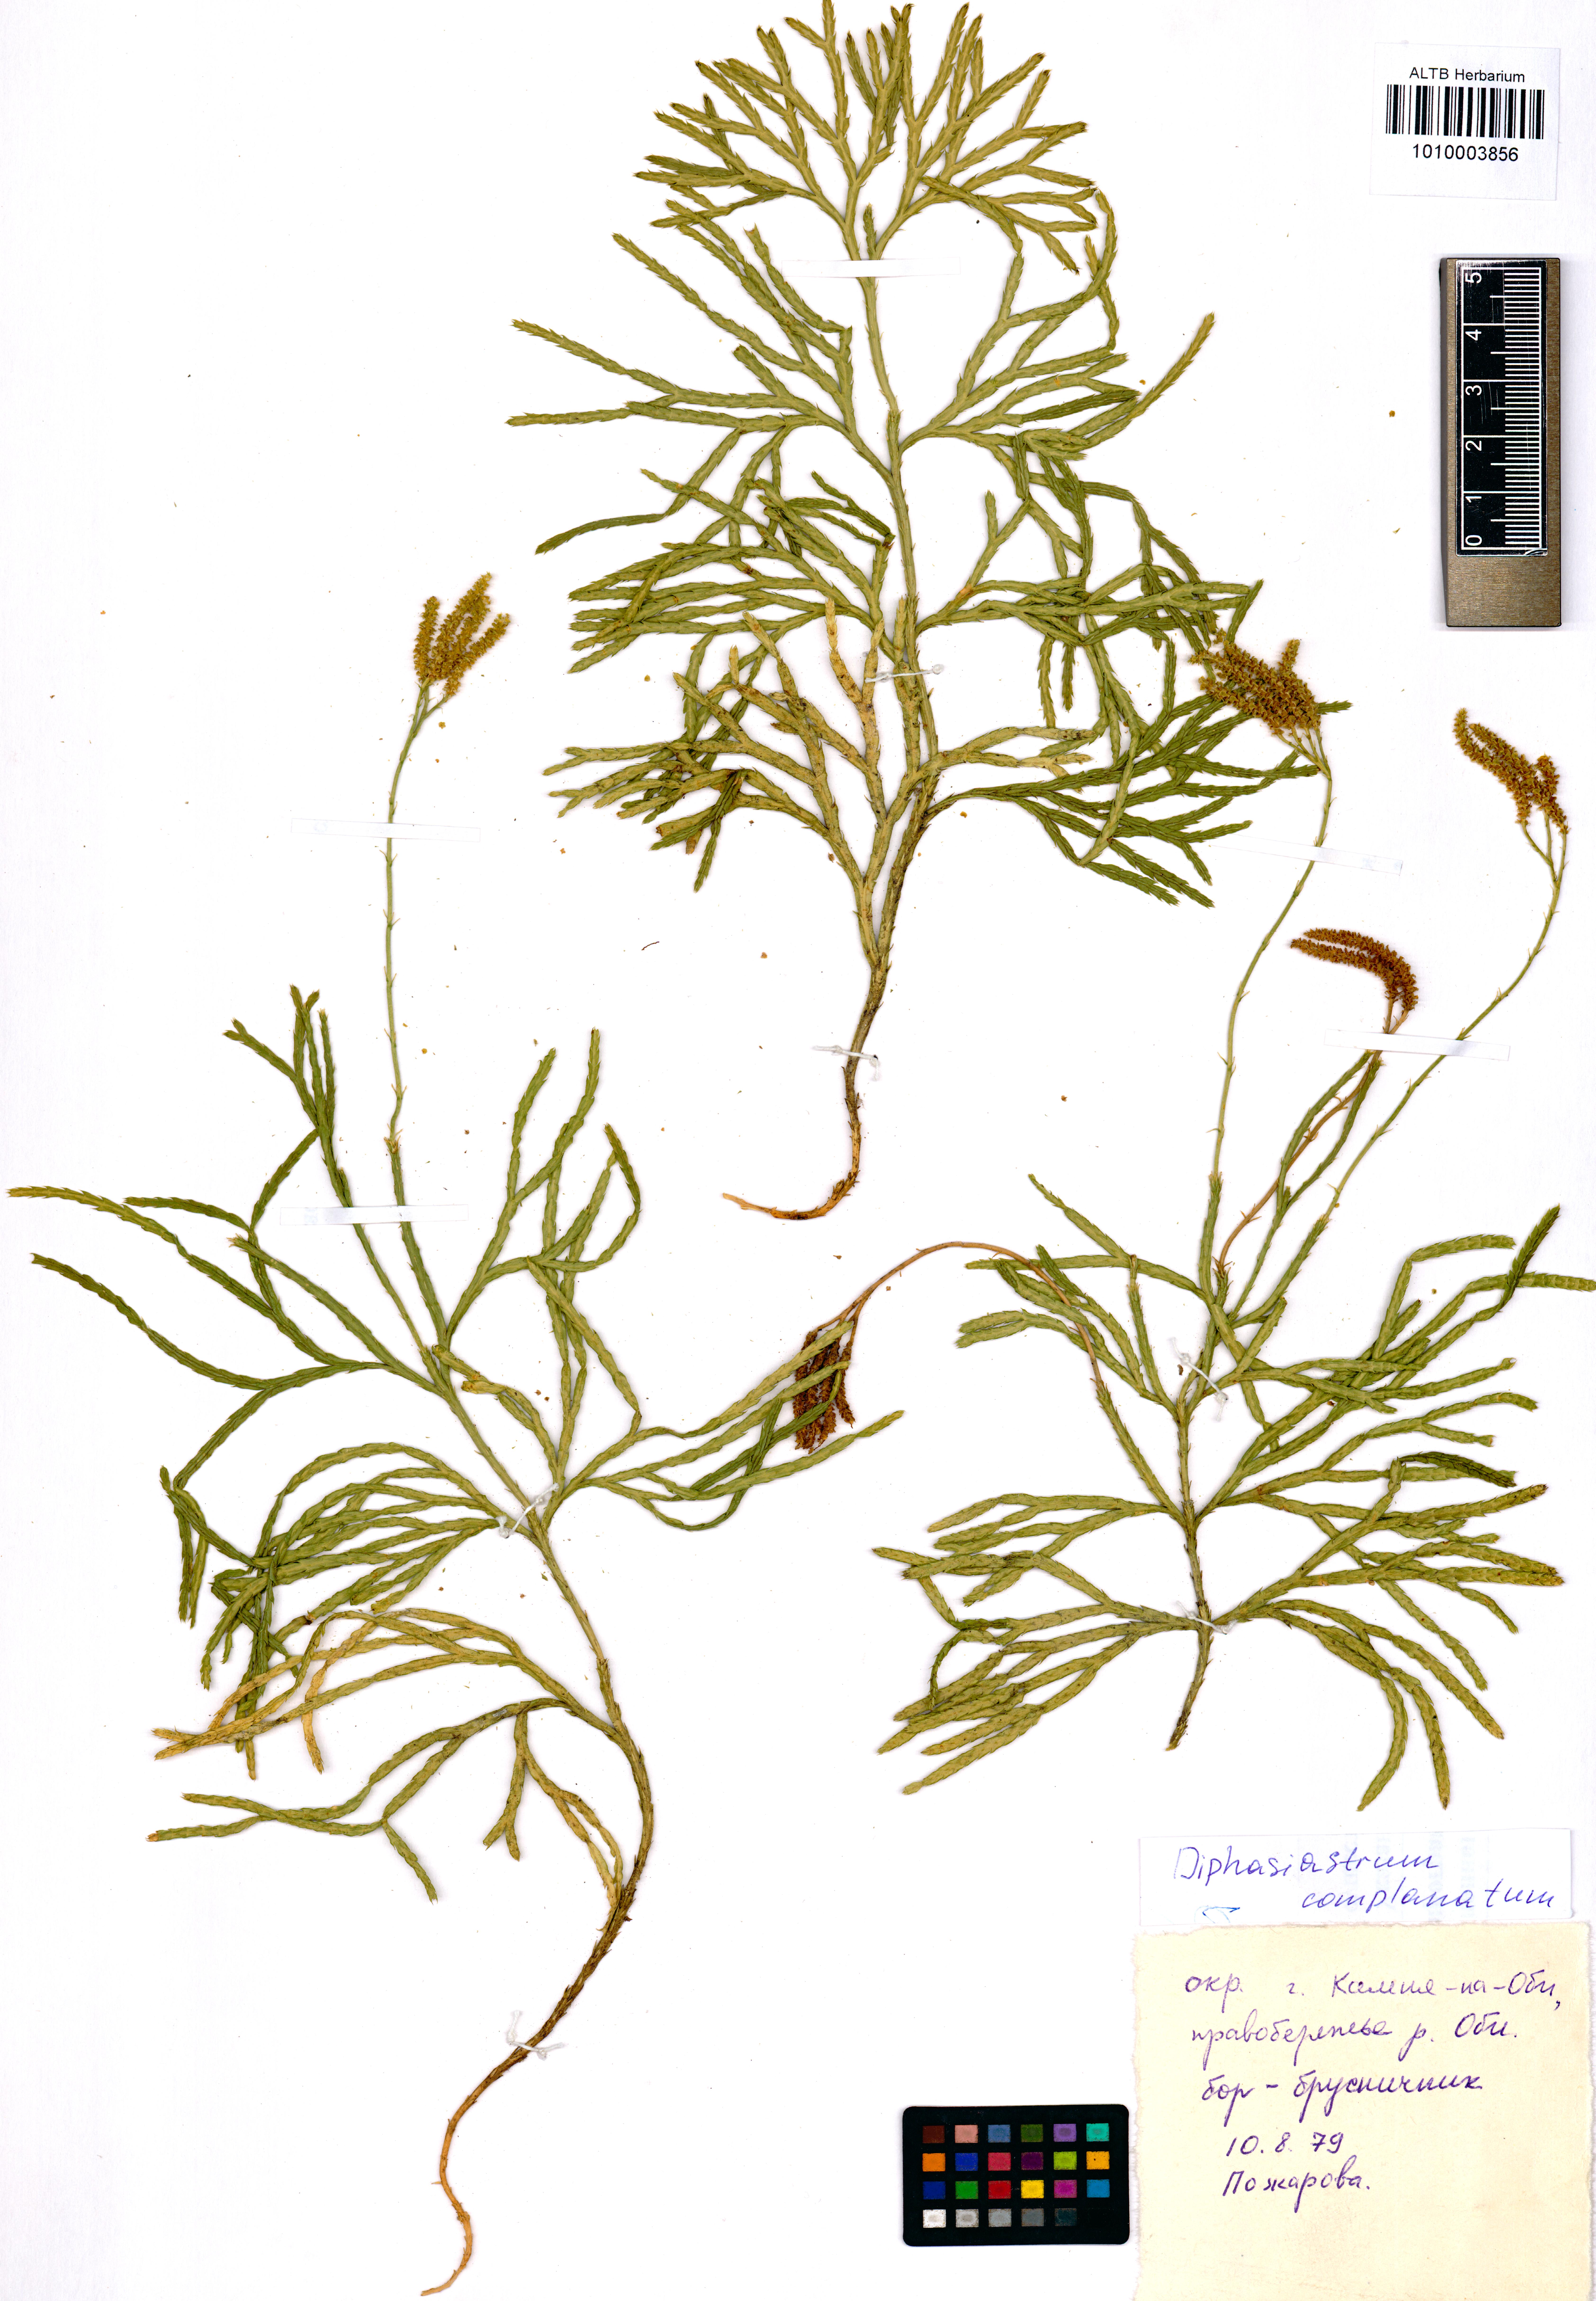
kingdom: Plantae
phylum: Tracheophyta
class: Lycopodiopsida
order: Lycopodiales
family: Lycopodiaceae
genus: Diphasiastrum
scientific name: Diphasiastrum complanatum
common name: Northern running-pine
